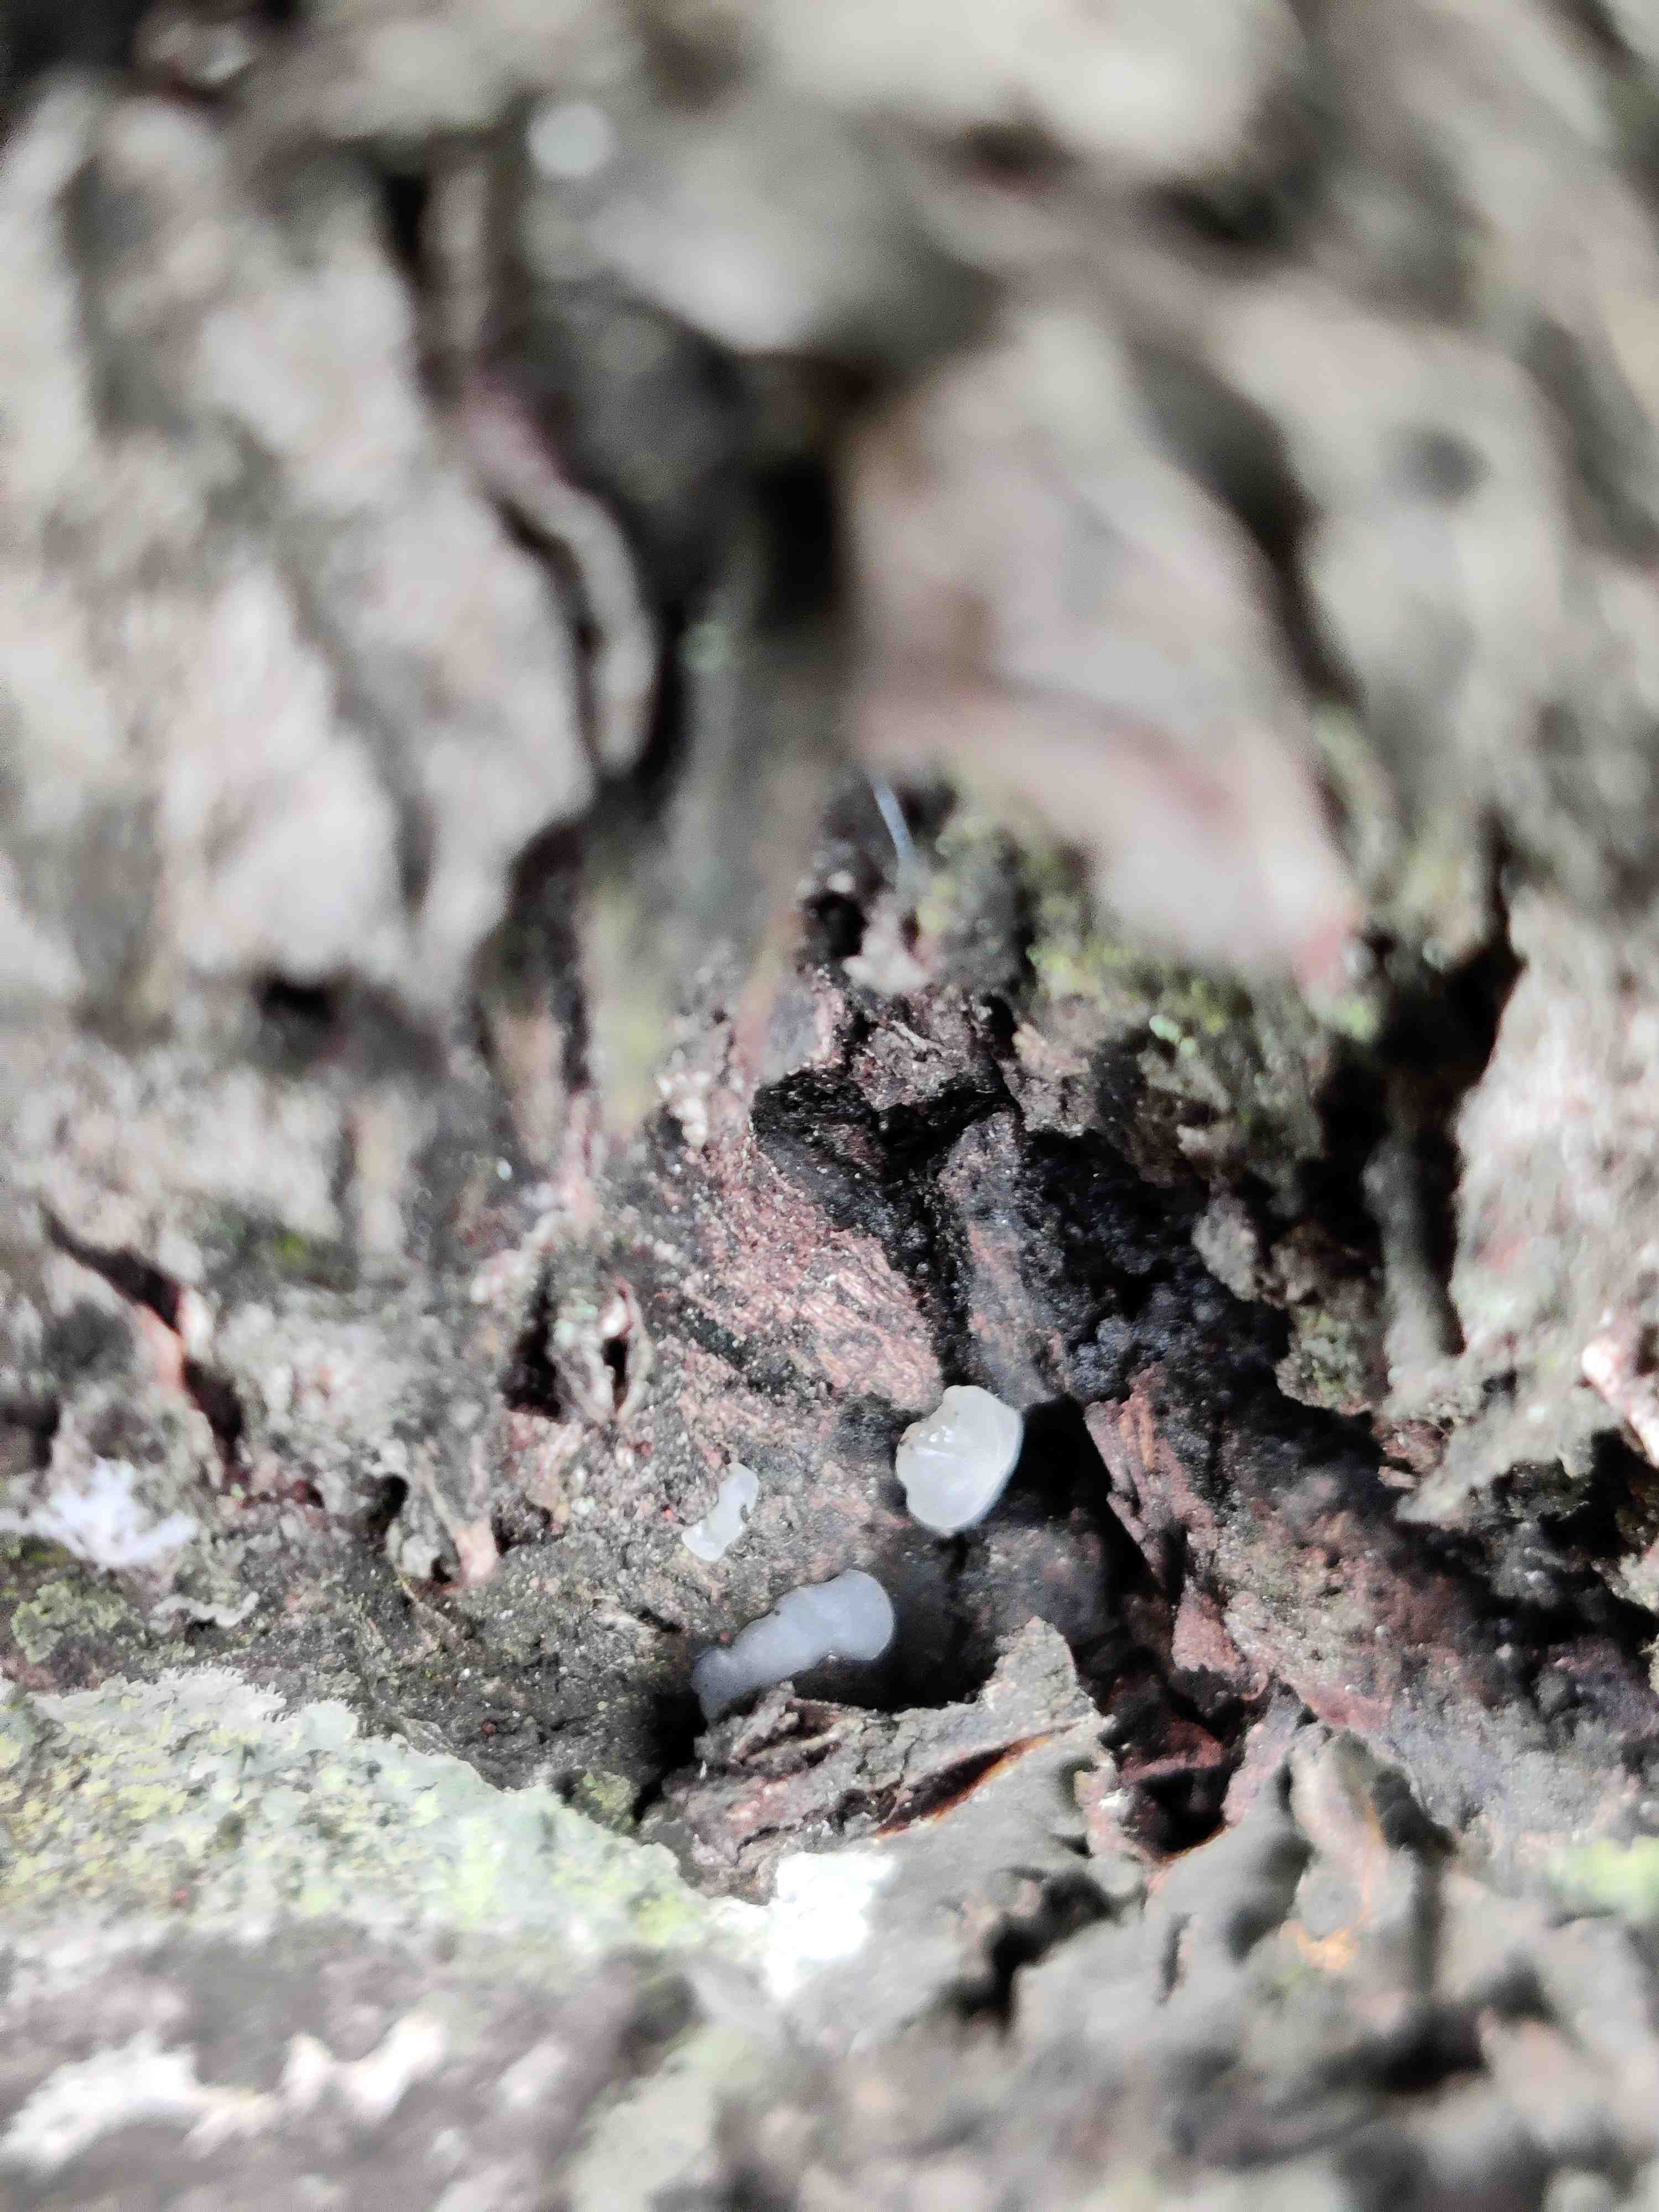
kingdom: Fungi
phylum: Ascomycota
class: Leotiomycetes
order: Helotiales
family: Gelatinodiscaceae
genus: Ombrophila
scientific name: Ombrophila
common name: bævreskive
